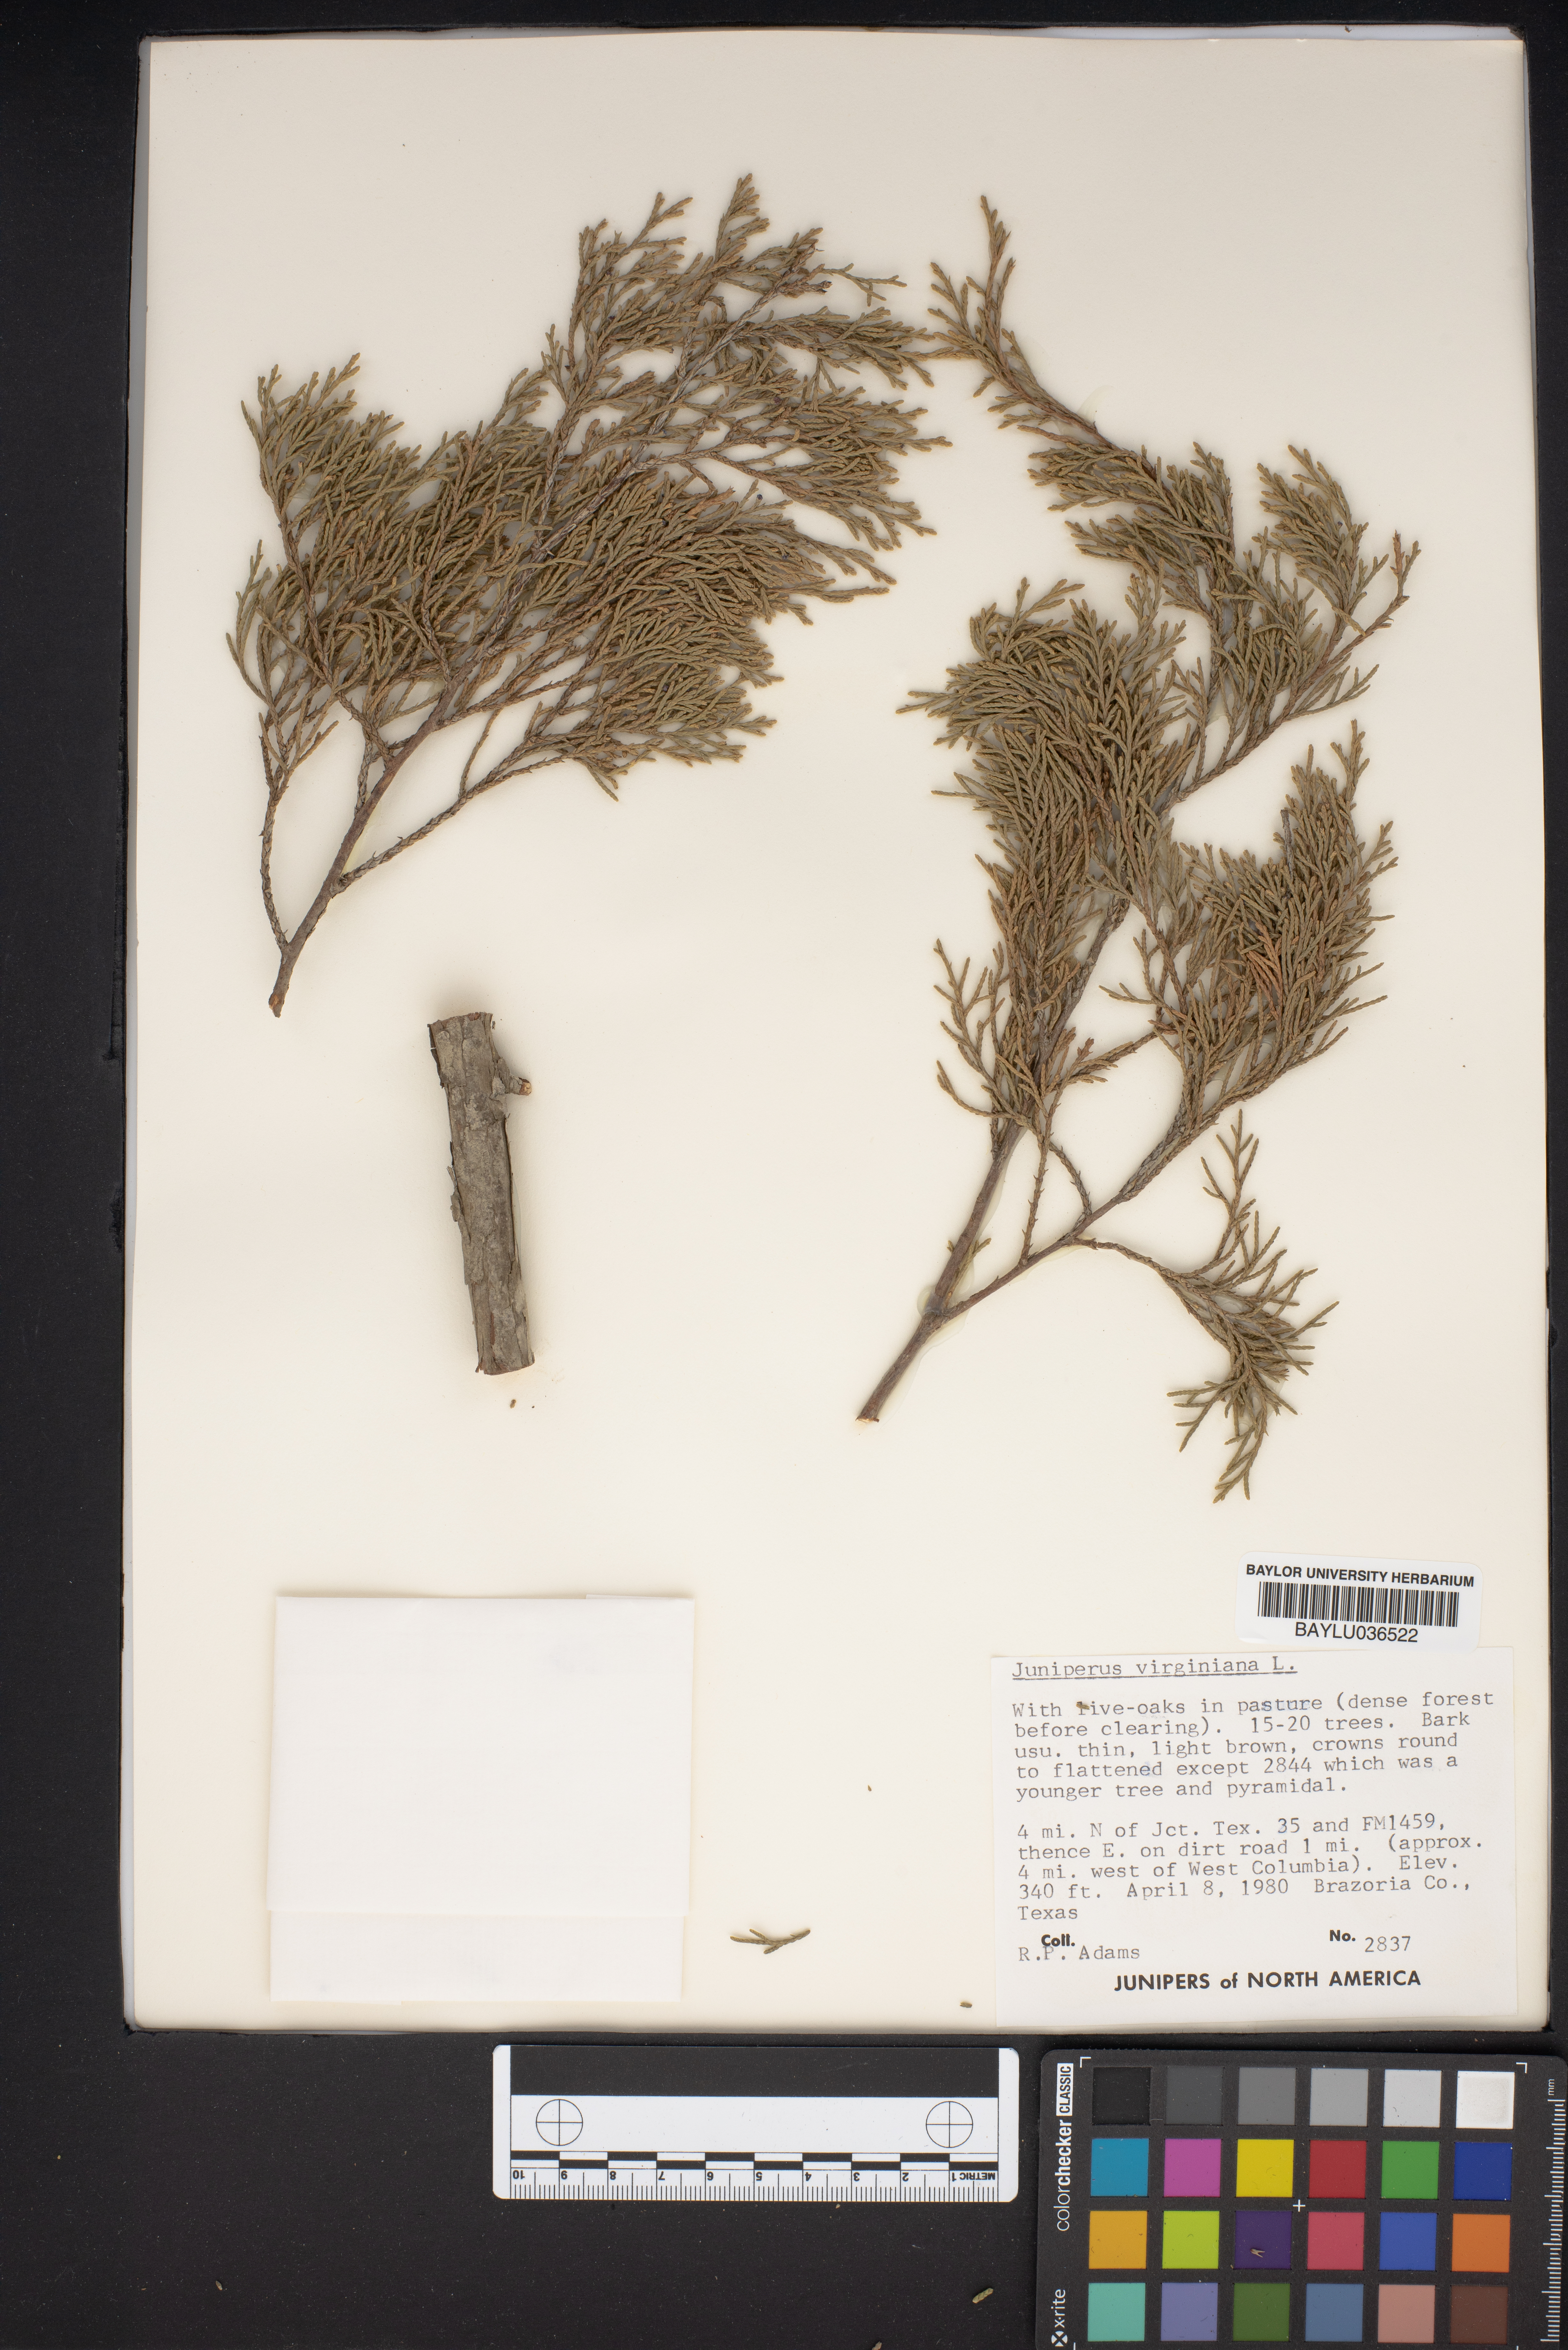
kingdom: Plantae
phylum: Tracheophyta
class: Pinopsida
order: Pinales
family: Cupressaceae
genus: Juniperus
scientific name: Juniperus virginiana
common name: Red juniper
